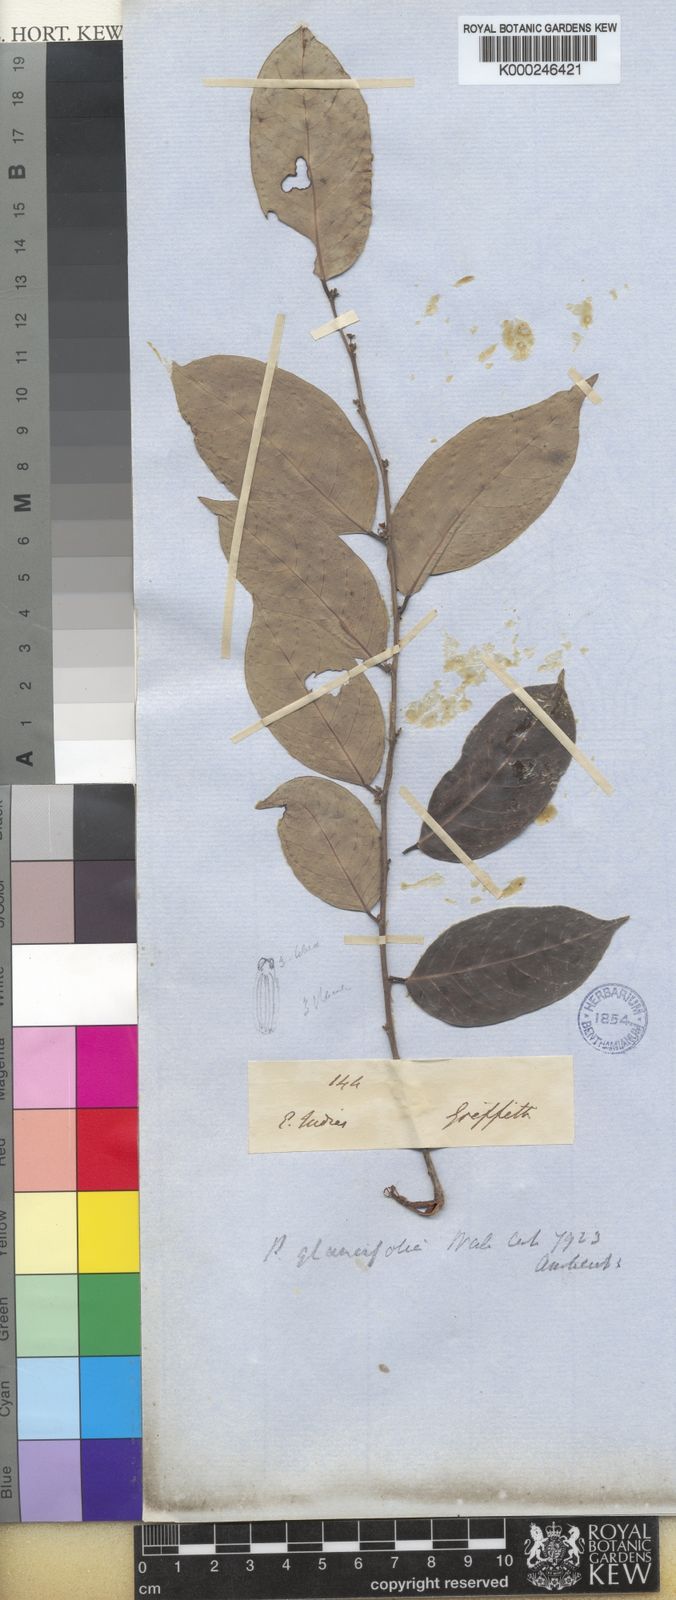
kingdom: Plantae
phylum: Tracheophyta
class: Magnoliopsida
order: Malpighiales
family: Phyllanthaceae
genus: Glochidion
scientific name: Glochidion lutescens
